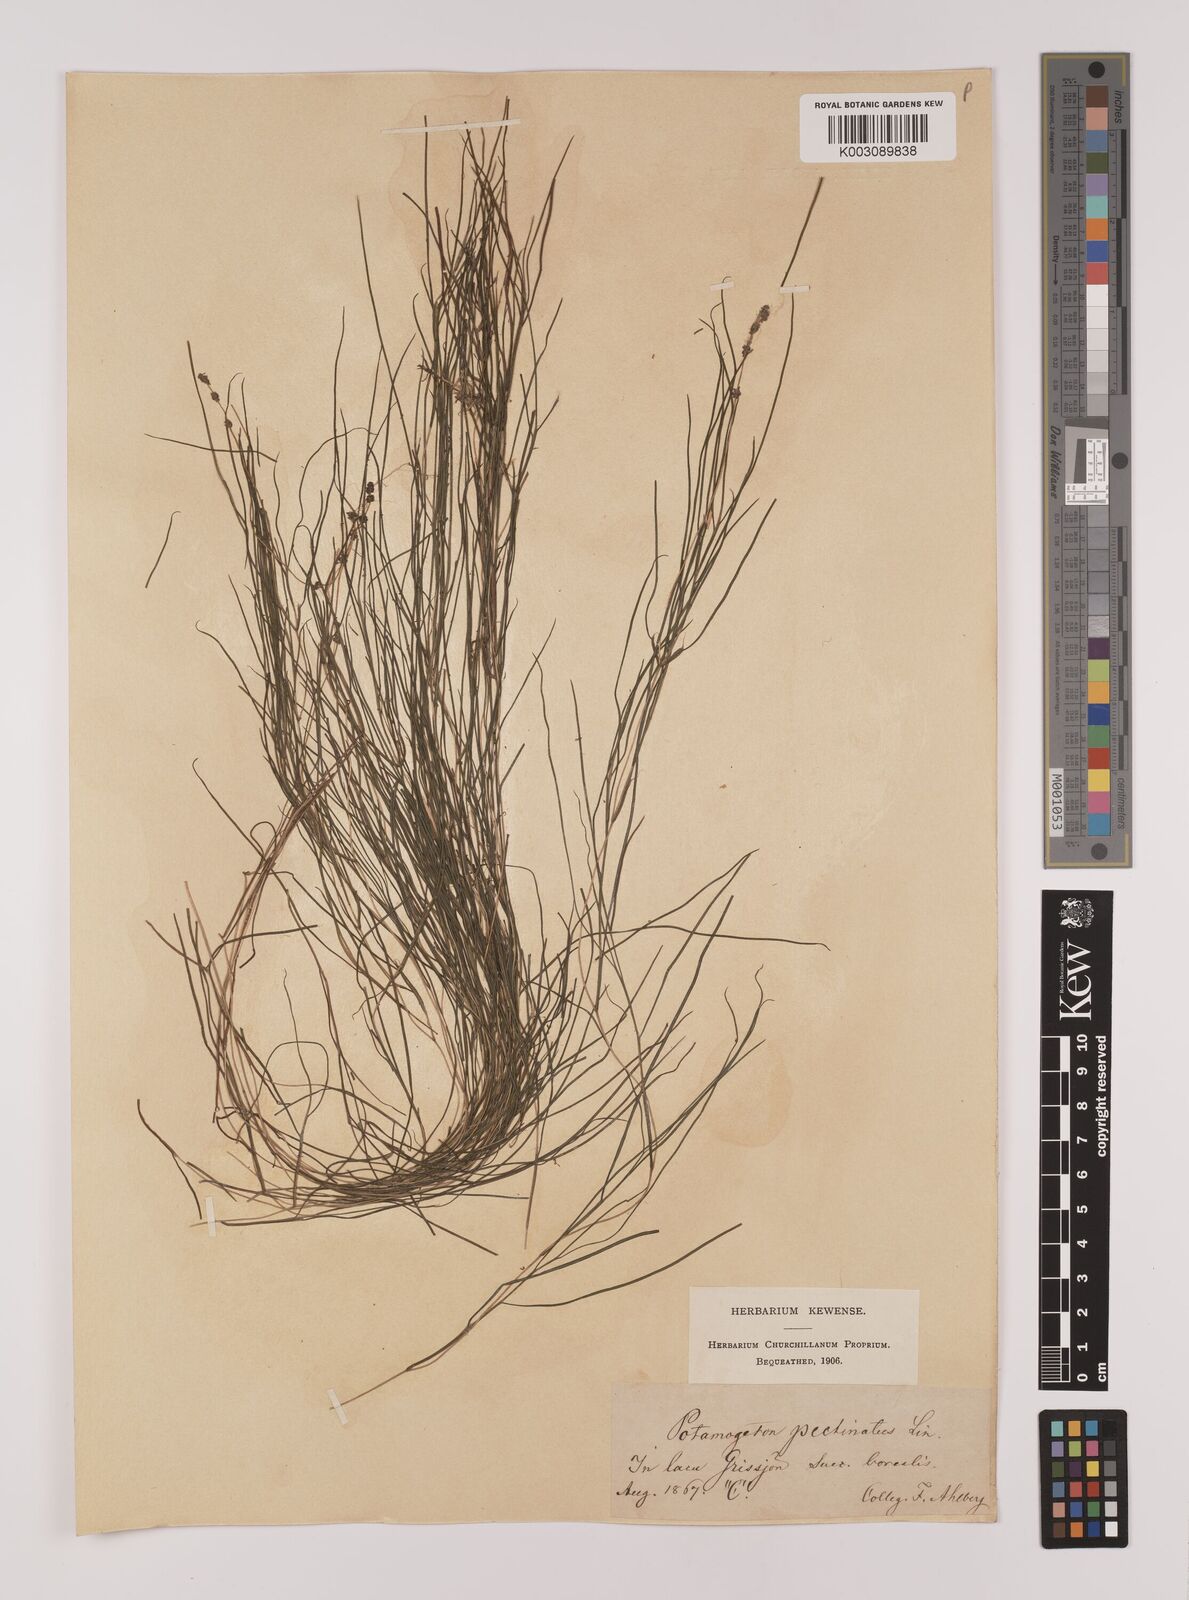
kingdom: Plantae
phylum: Tracheophyta
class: Liliopsida
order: Alismatales
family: Potamogetonaceae
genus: Stuckenia
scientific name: Stuckenia pectinata
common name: Sago pondweed
